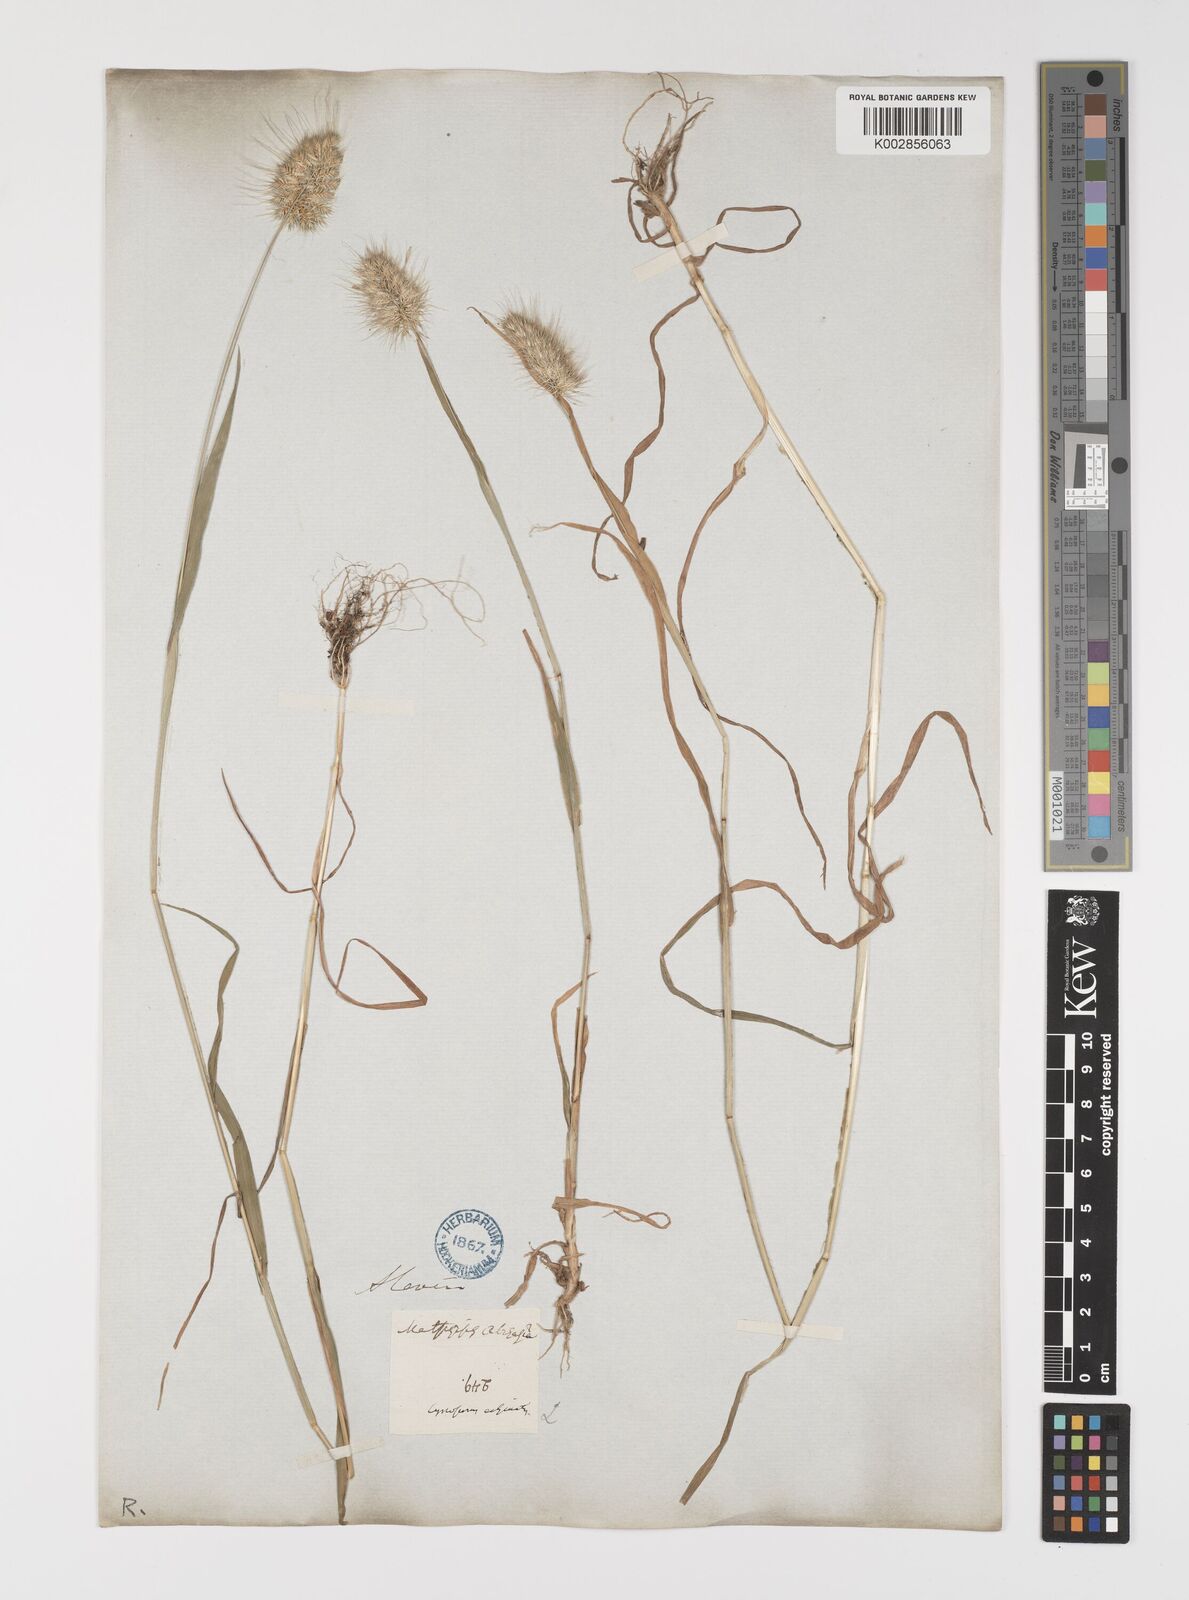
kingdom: Plantae
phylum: Tracheophyta
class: Liliopsida
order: Poales
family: Poaceae
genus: Cynosurus
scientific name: Cynosurus echinatus
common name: Rough dog's-tail
